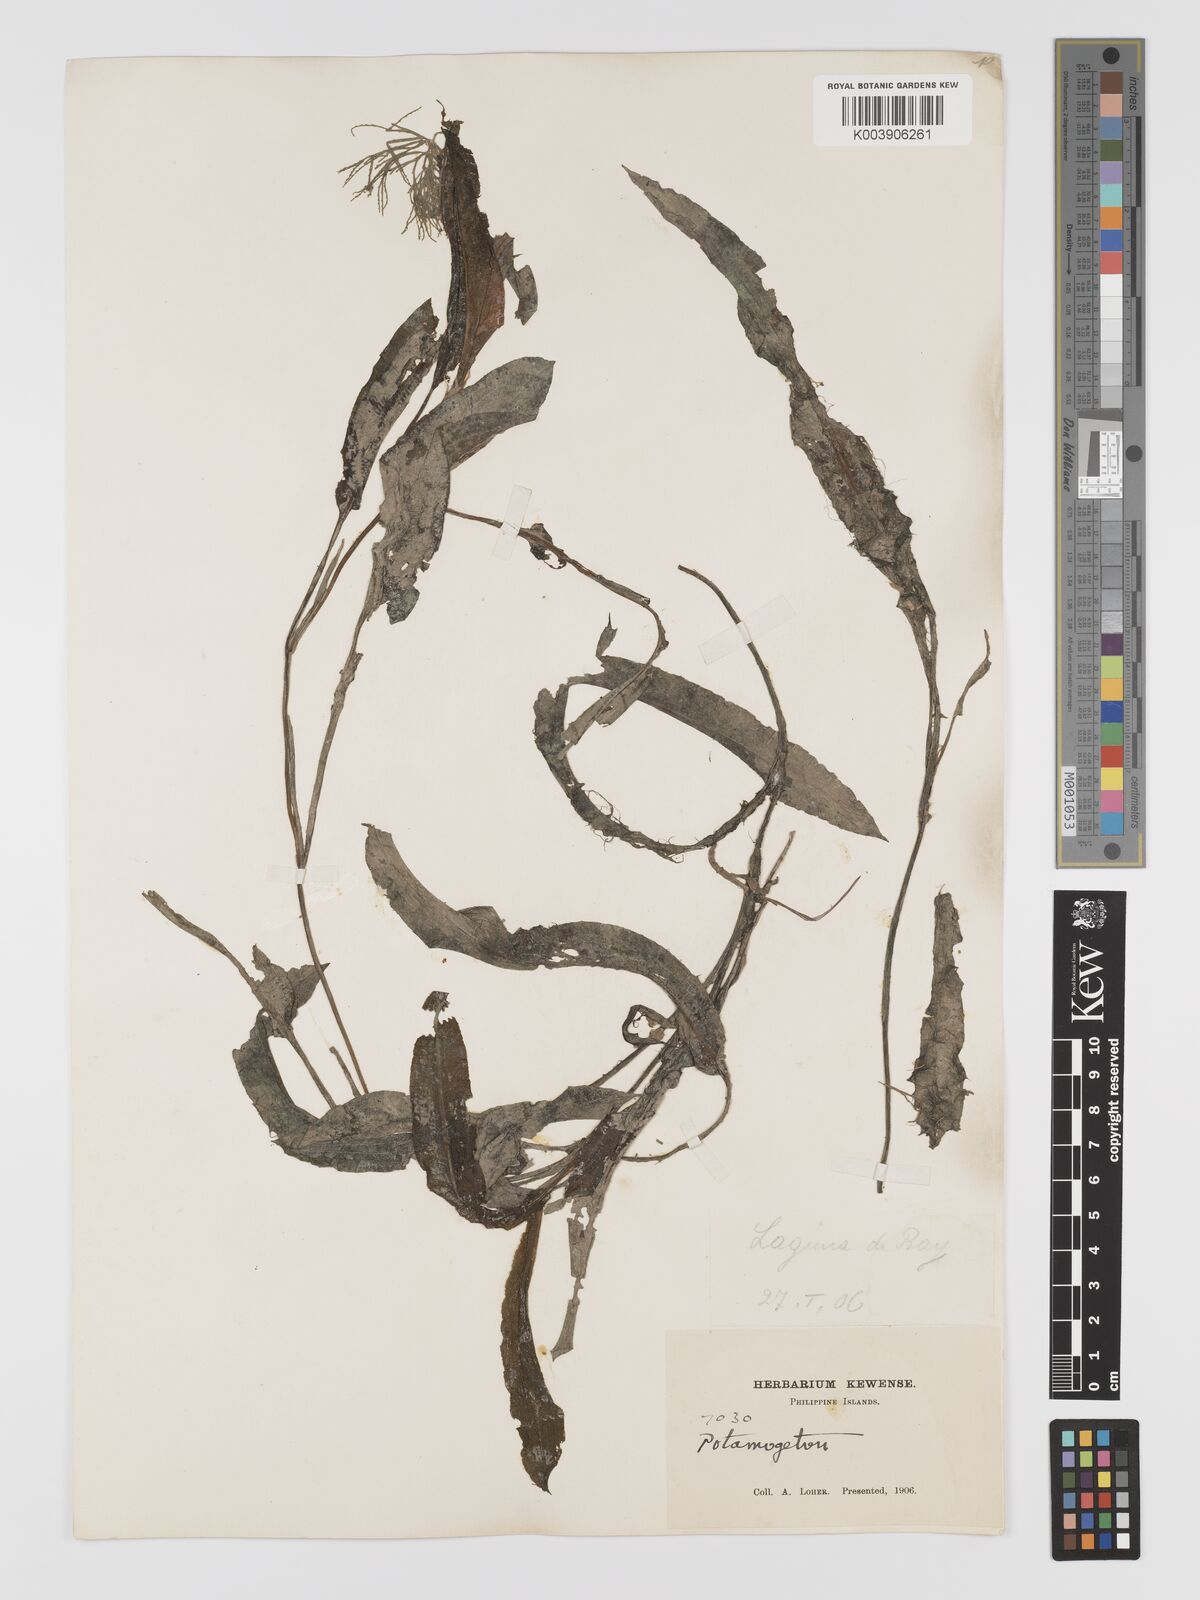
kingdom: Plantae
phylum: Tracheophyta
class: Liliopsida
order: Alismatales
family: Potamogetonaceae
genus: Potamogeton
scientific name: Potamogeton wrightii
